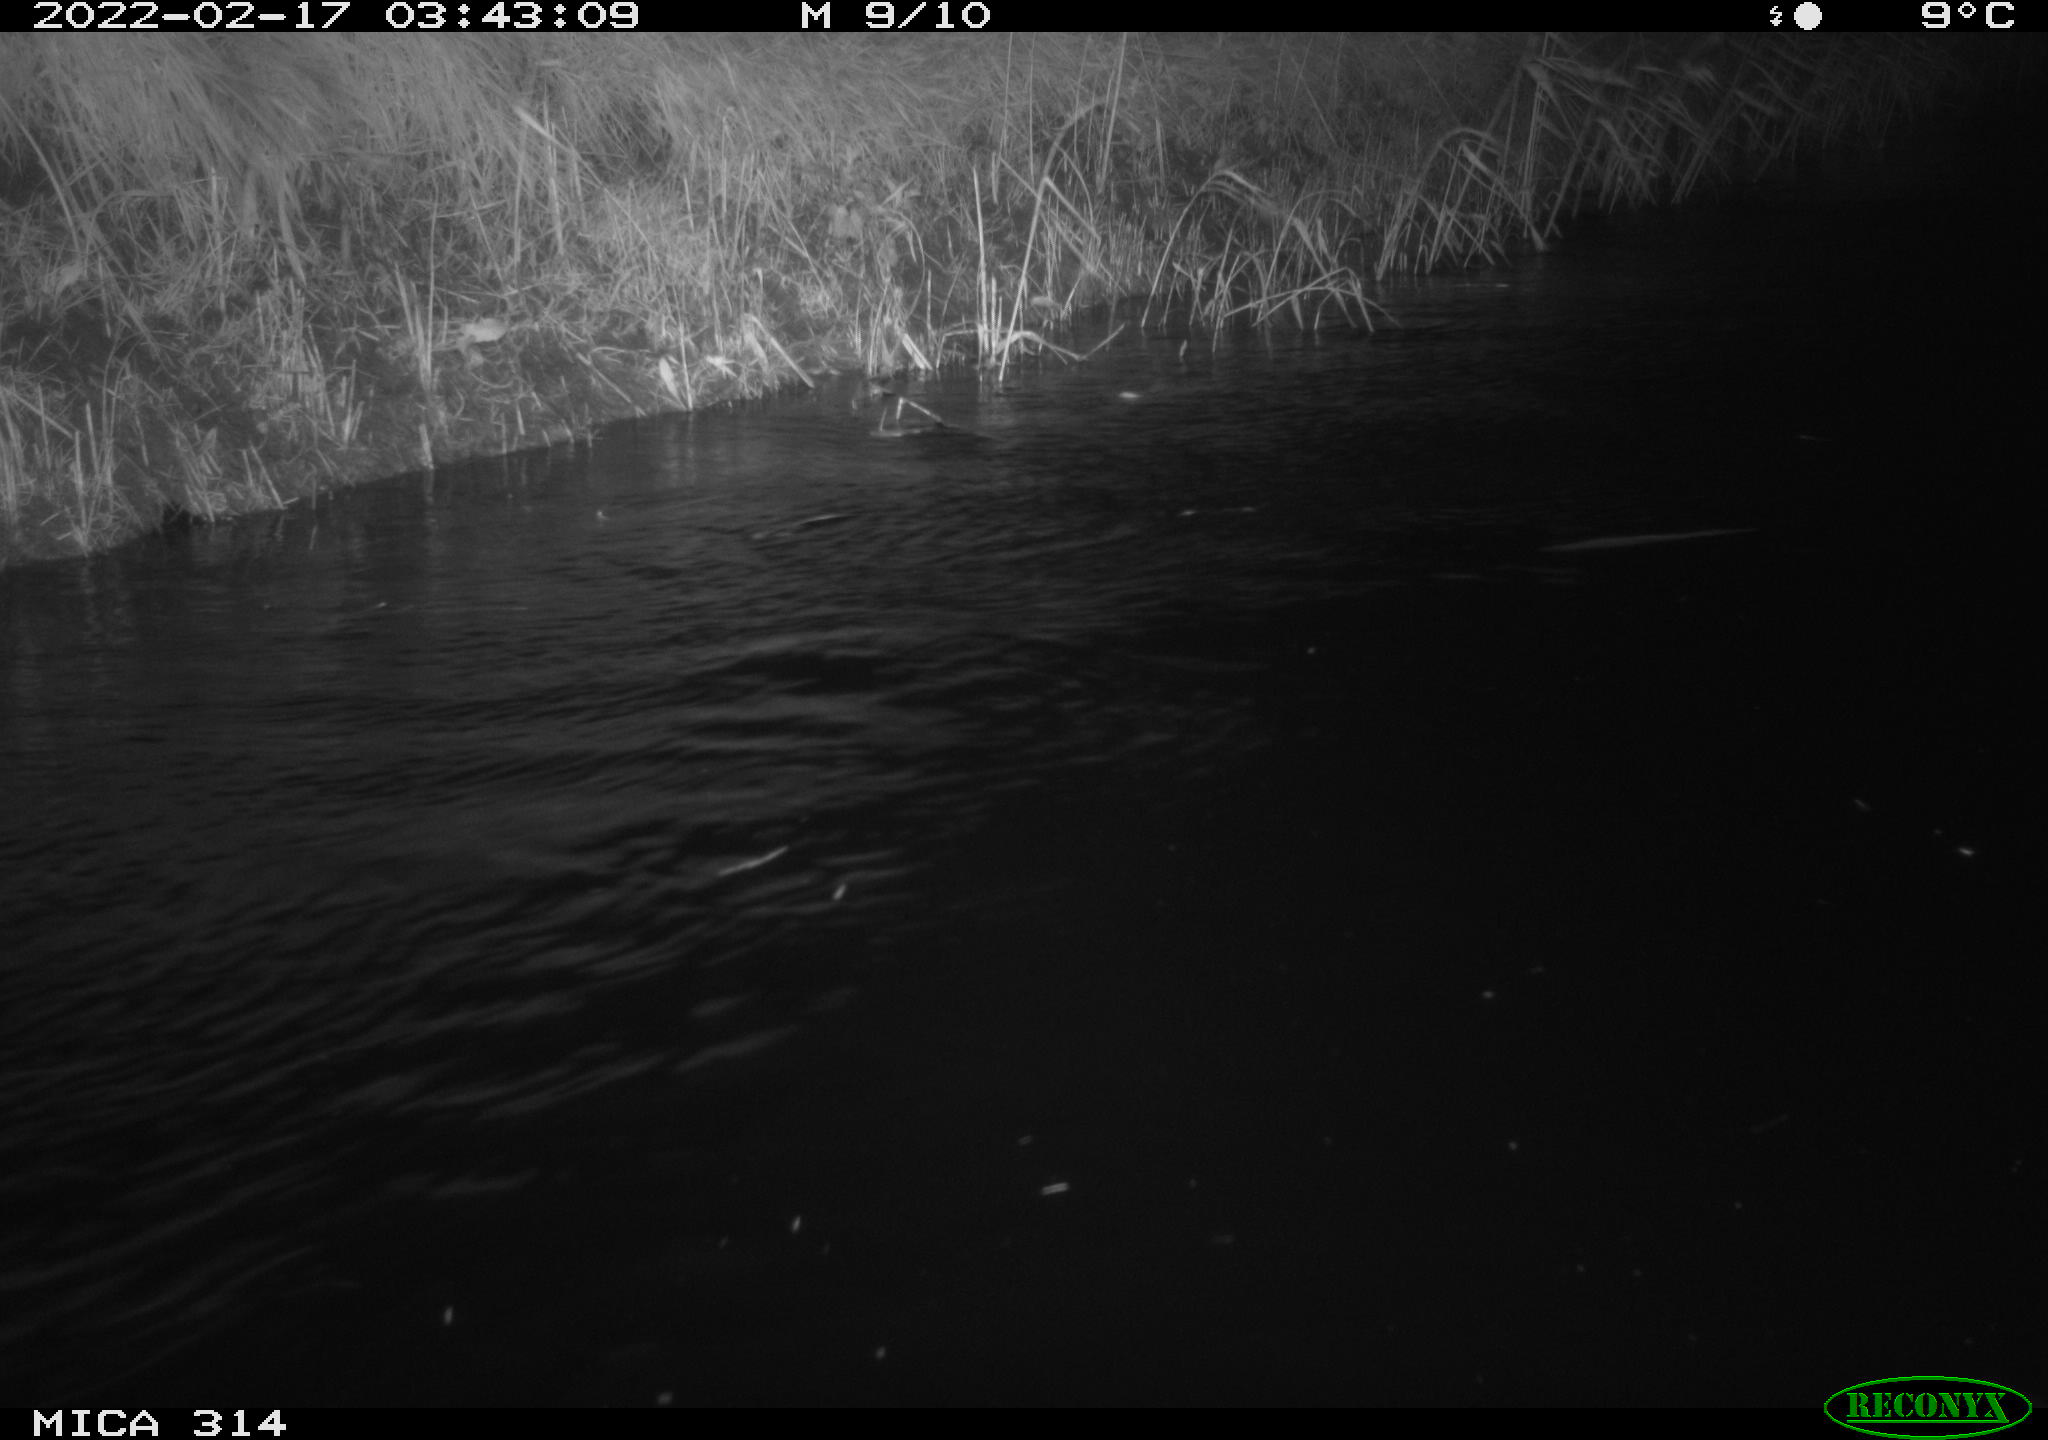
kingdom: Animalia
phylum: Chordata
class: Aves
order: Gruiformes
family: Rallidae
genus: Gallinula
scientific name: Gallinula chloropus
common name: Common moorhen
